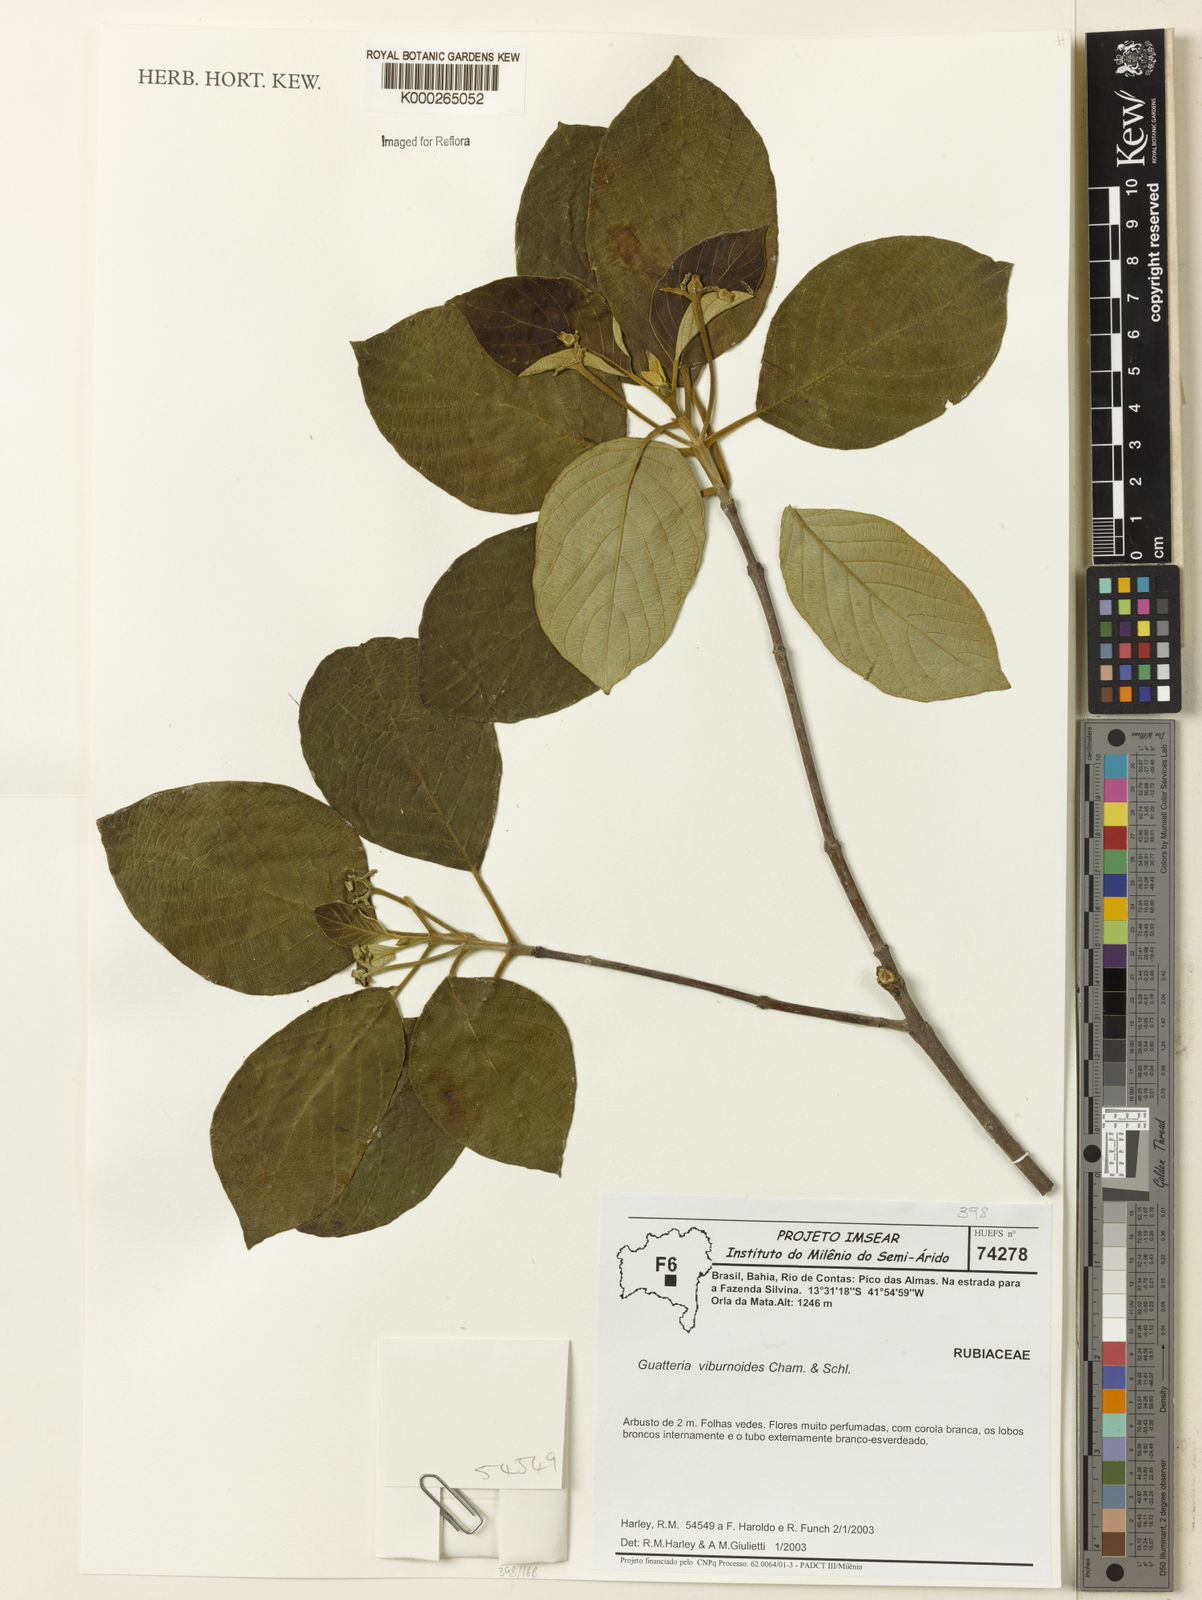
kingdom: Plantae
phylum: Tracheophyta
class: Magnoliopsida
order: Magnoliales
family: Annonaceae
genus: Guatteria
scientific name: Guatteria
